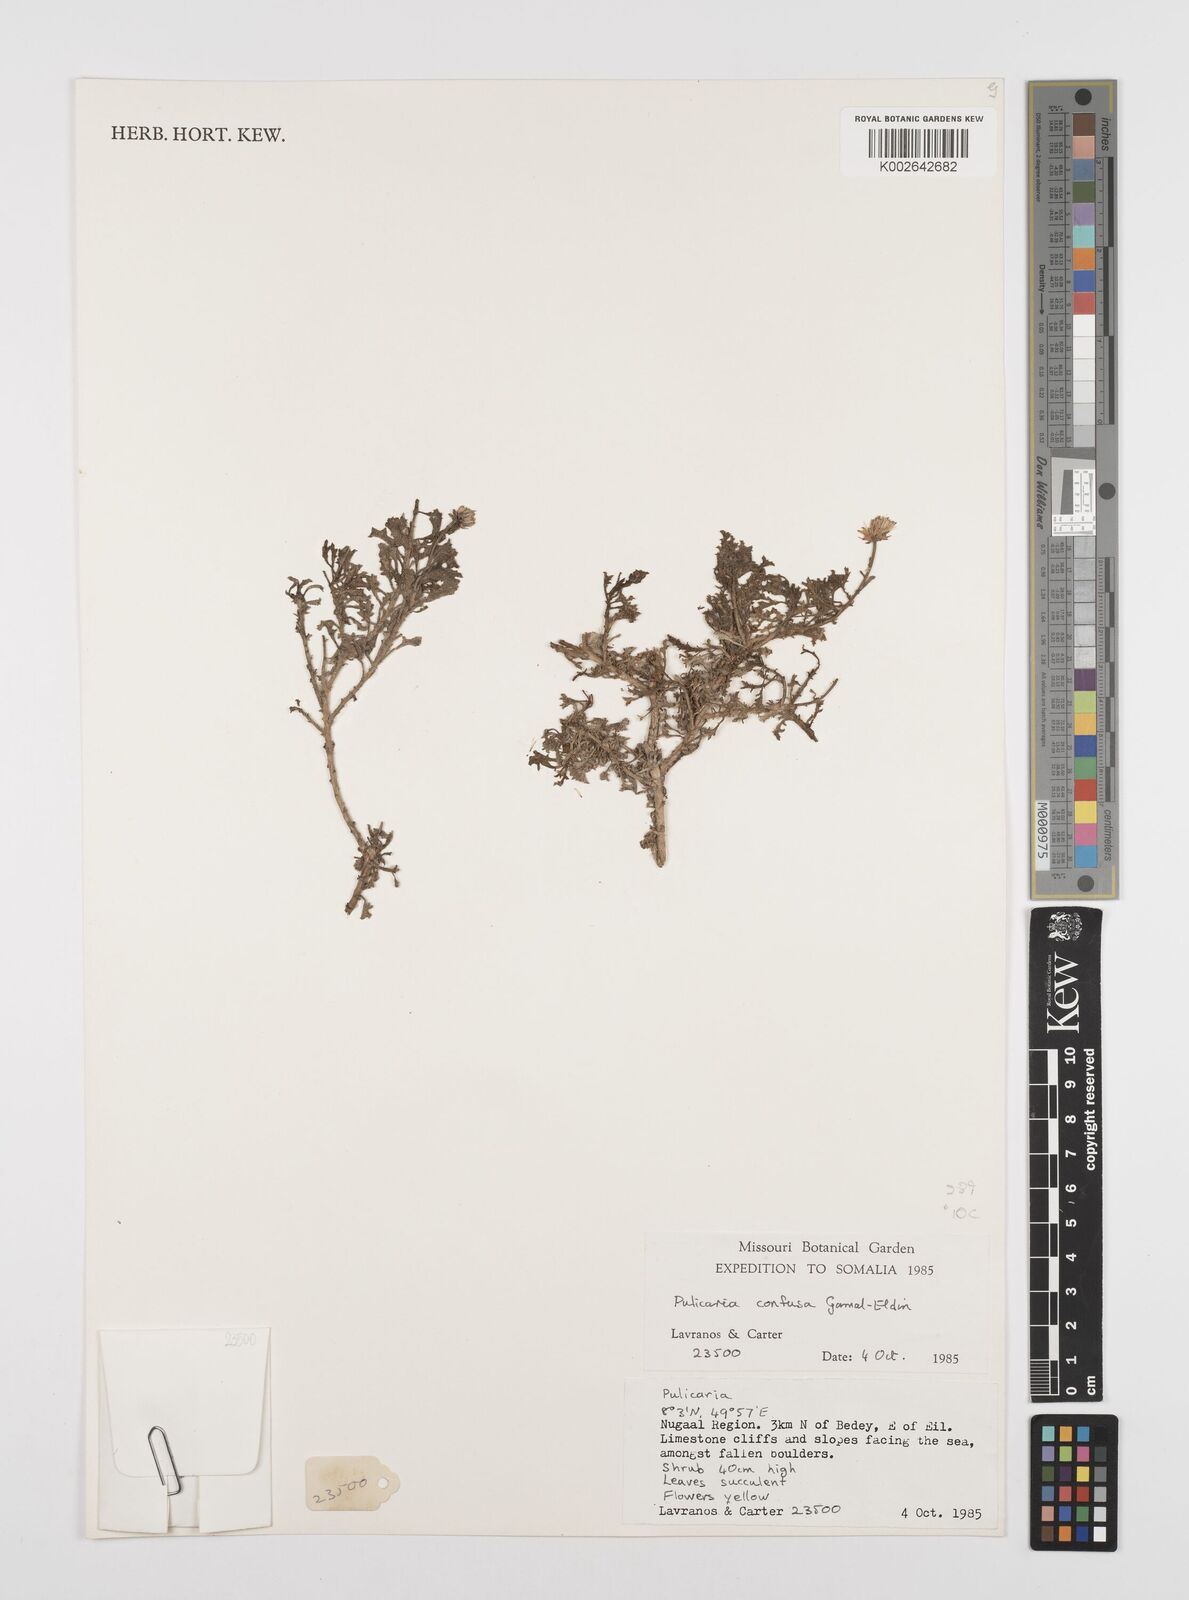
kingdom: Plantae
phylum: Tracheophyta
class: Magnoliopsida
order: Asterales
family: Asteraceae
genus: Pulicaria
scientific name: Pulicaria confusa
